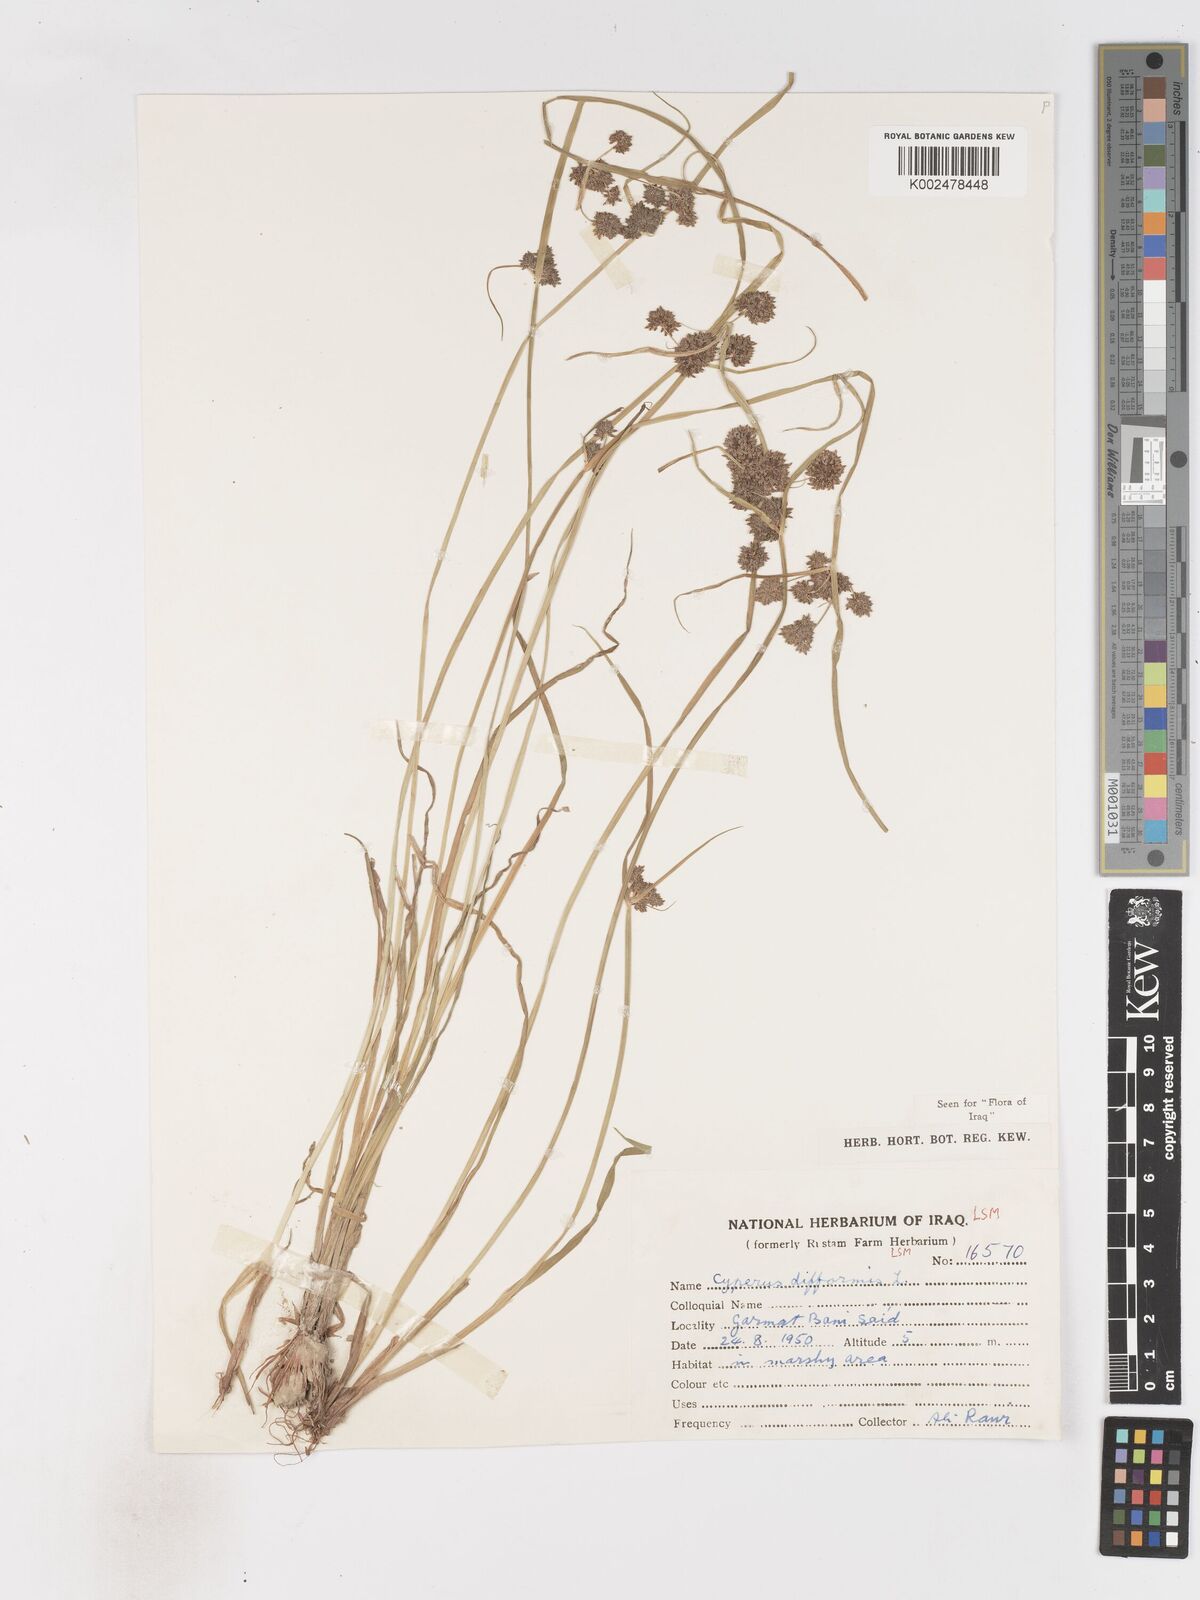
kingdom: Plantae
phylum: Tracheophyta
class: Liliopsida
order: Poales
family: Cyperaceae
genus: Cyperus
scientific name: Cyperus difformis
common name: Variable flatsedge
